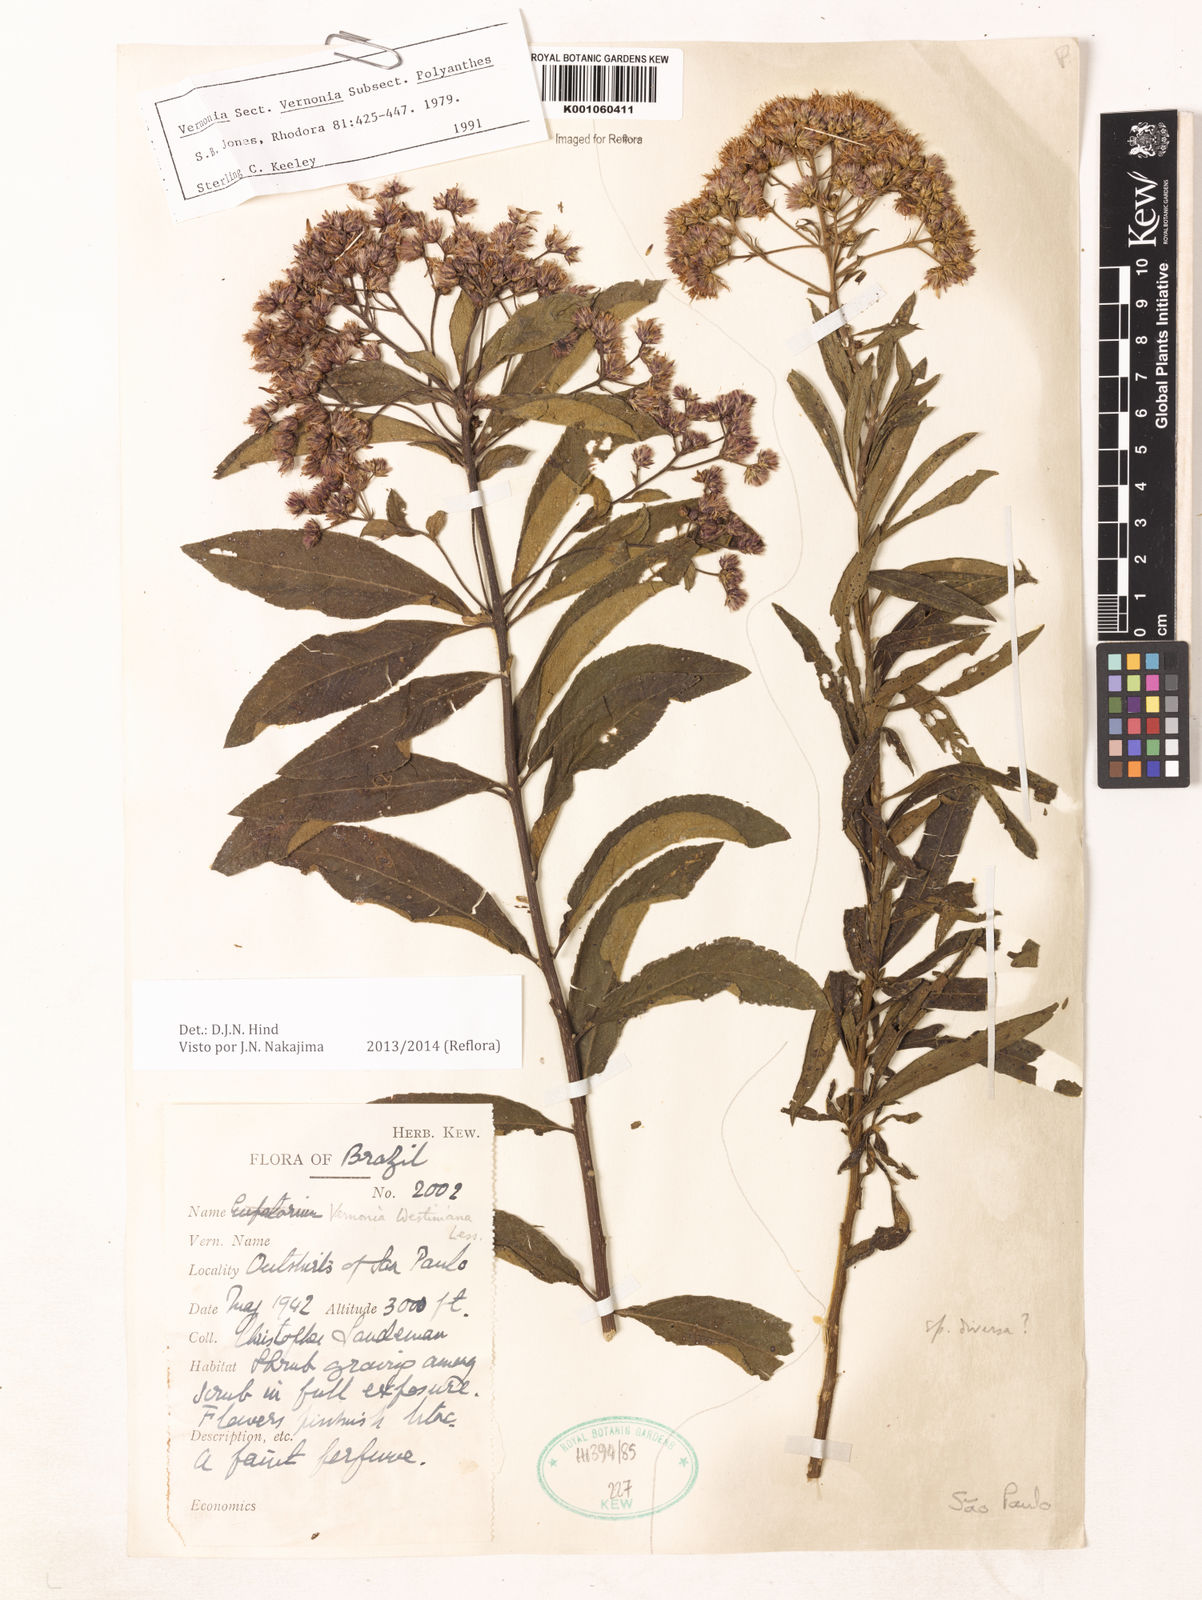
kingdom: Plantae
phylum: Tracheophyta
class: Magnoliopsida
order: Asterales
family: Asteraceae
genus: Vernonanthura
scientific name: Vernonanthura westiniana
